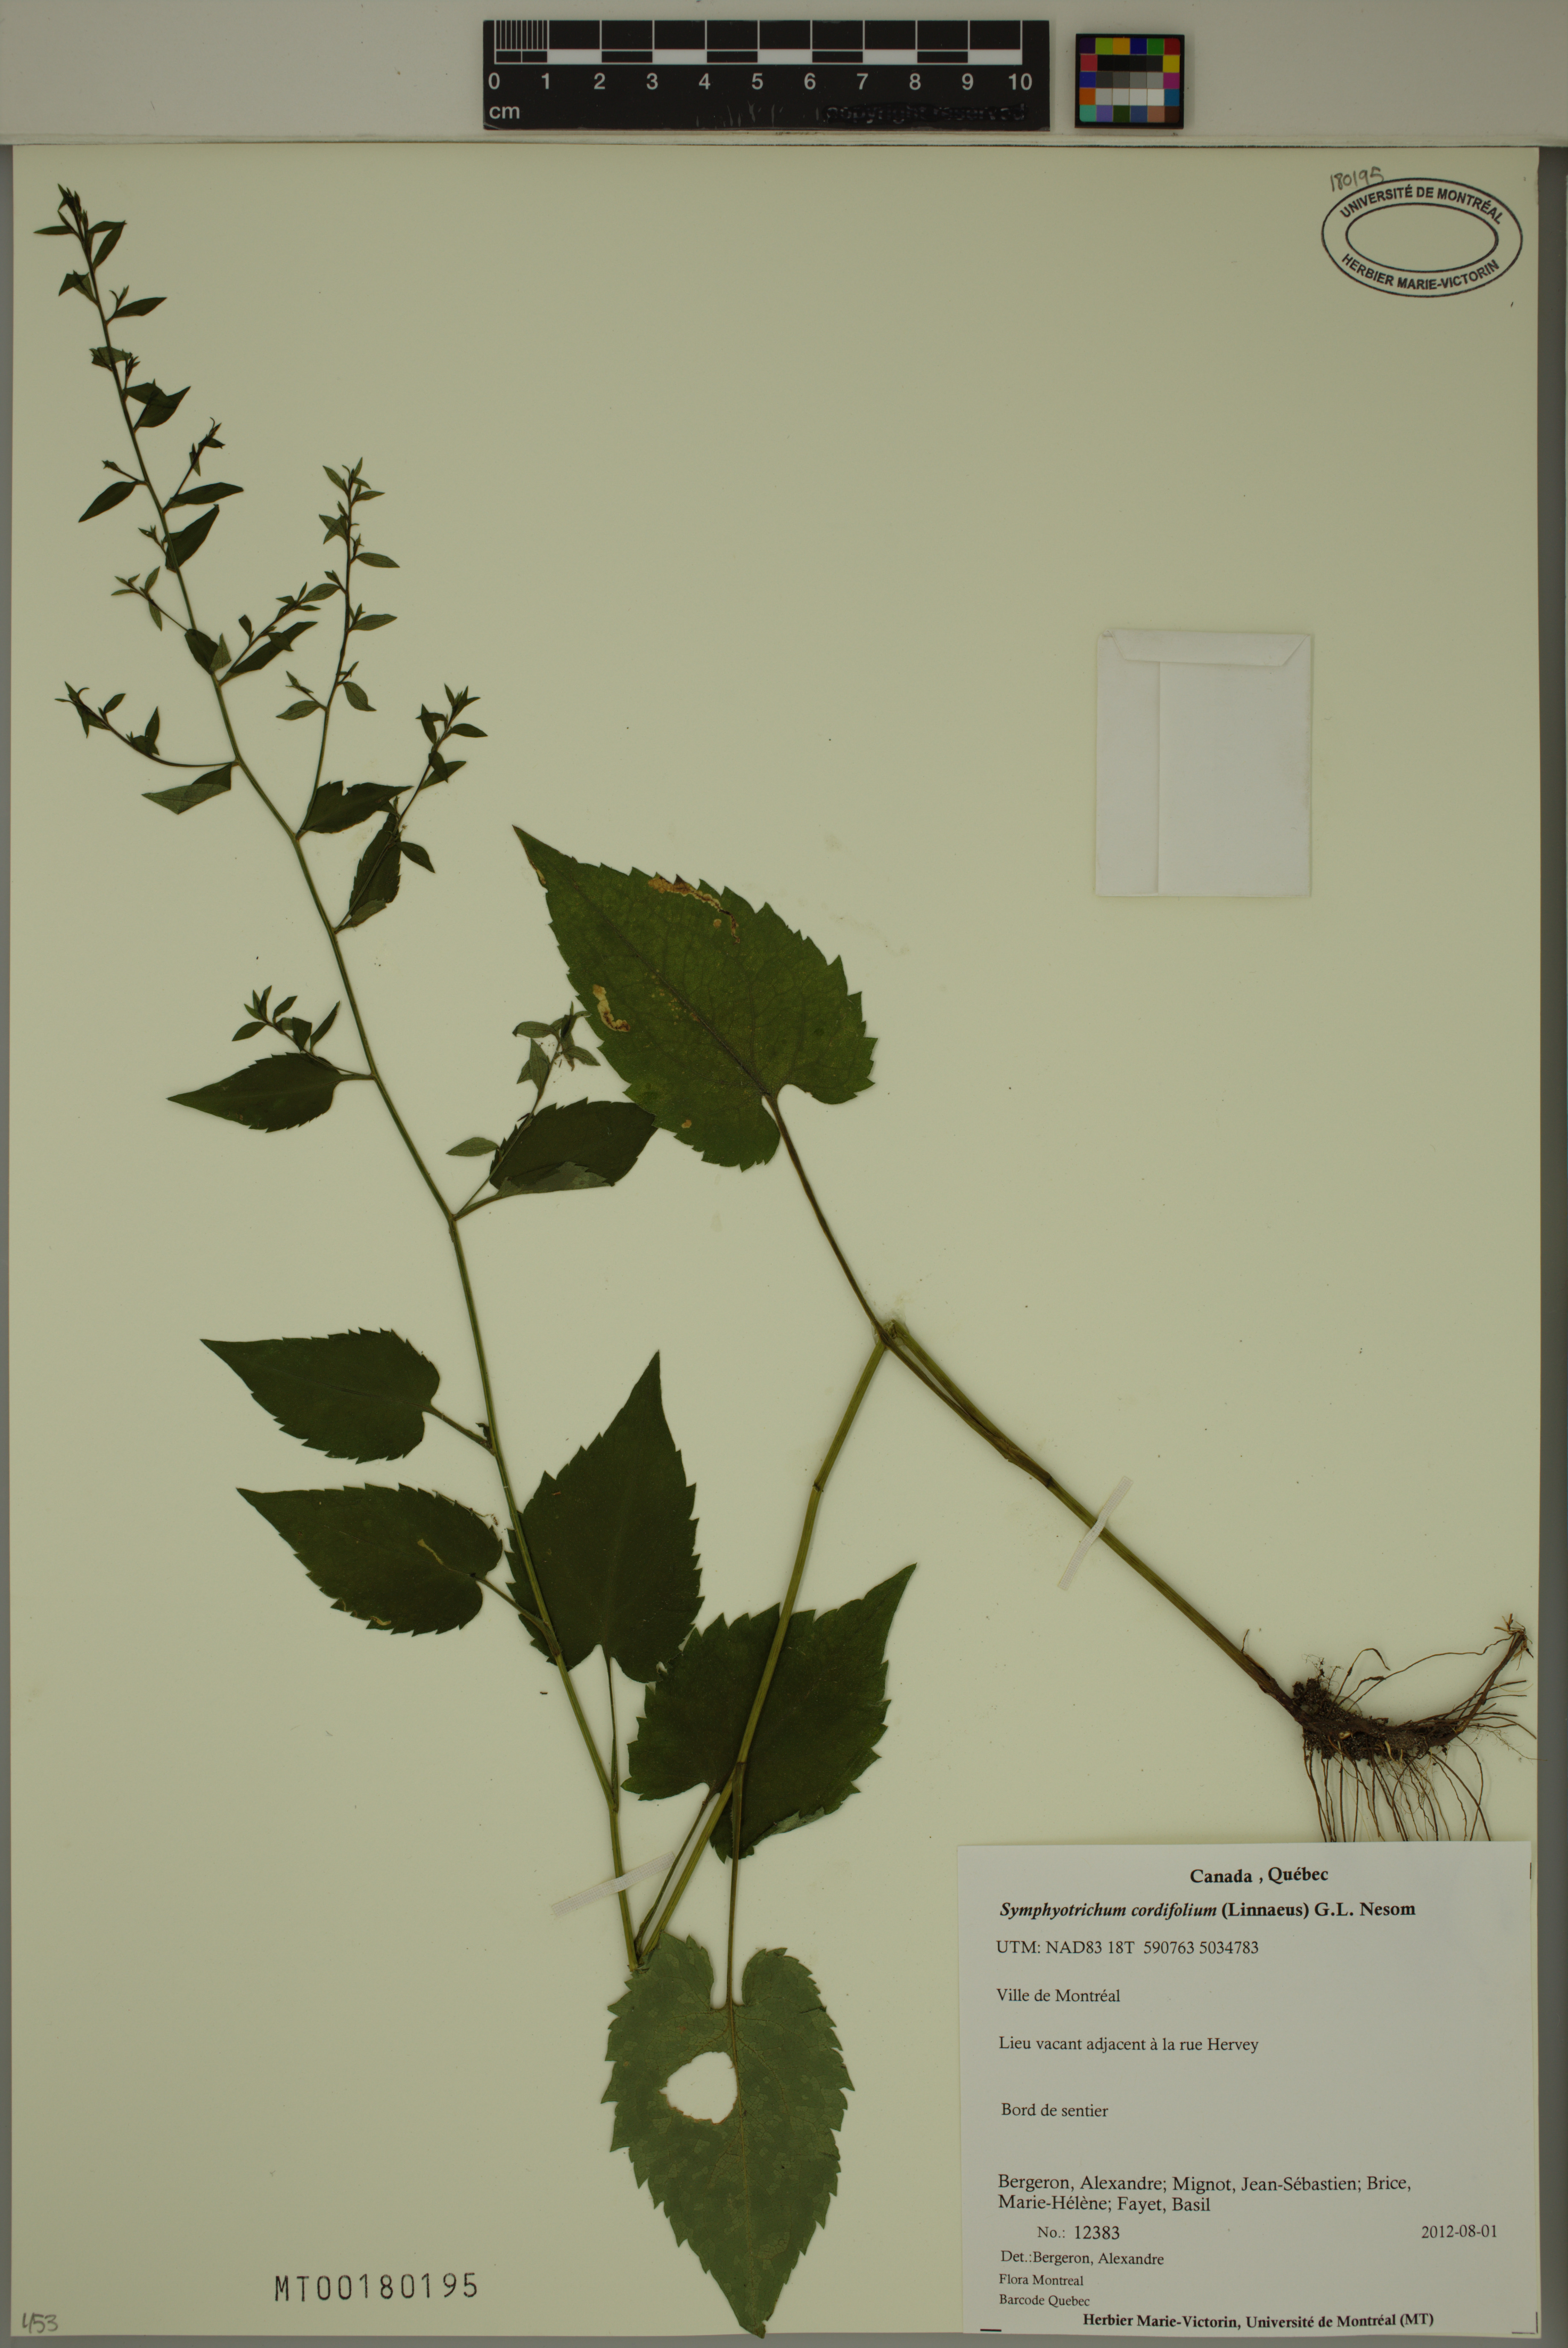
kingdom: Plantae
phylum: Tracheophyta
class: Magnoliopsida
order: Asterales
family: Asteraceae
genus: Symphyotrichum
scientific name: Symphyotrichum cordifolium
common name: Beeweed
